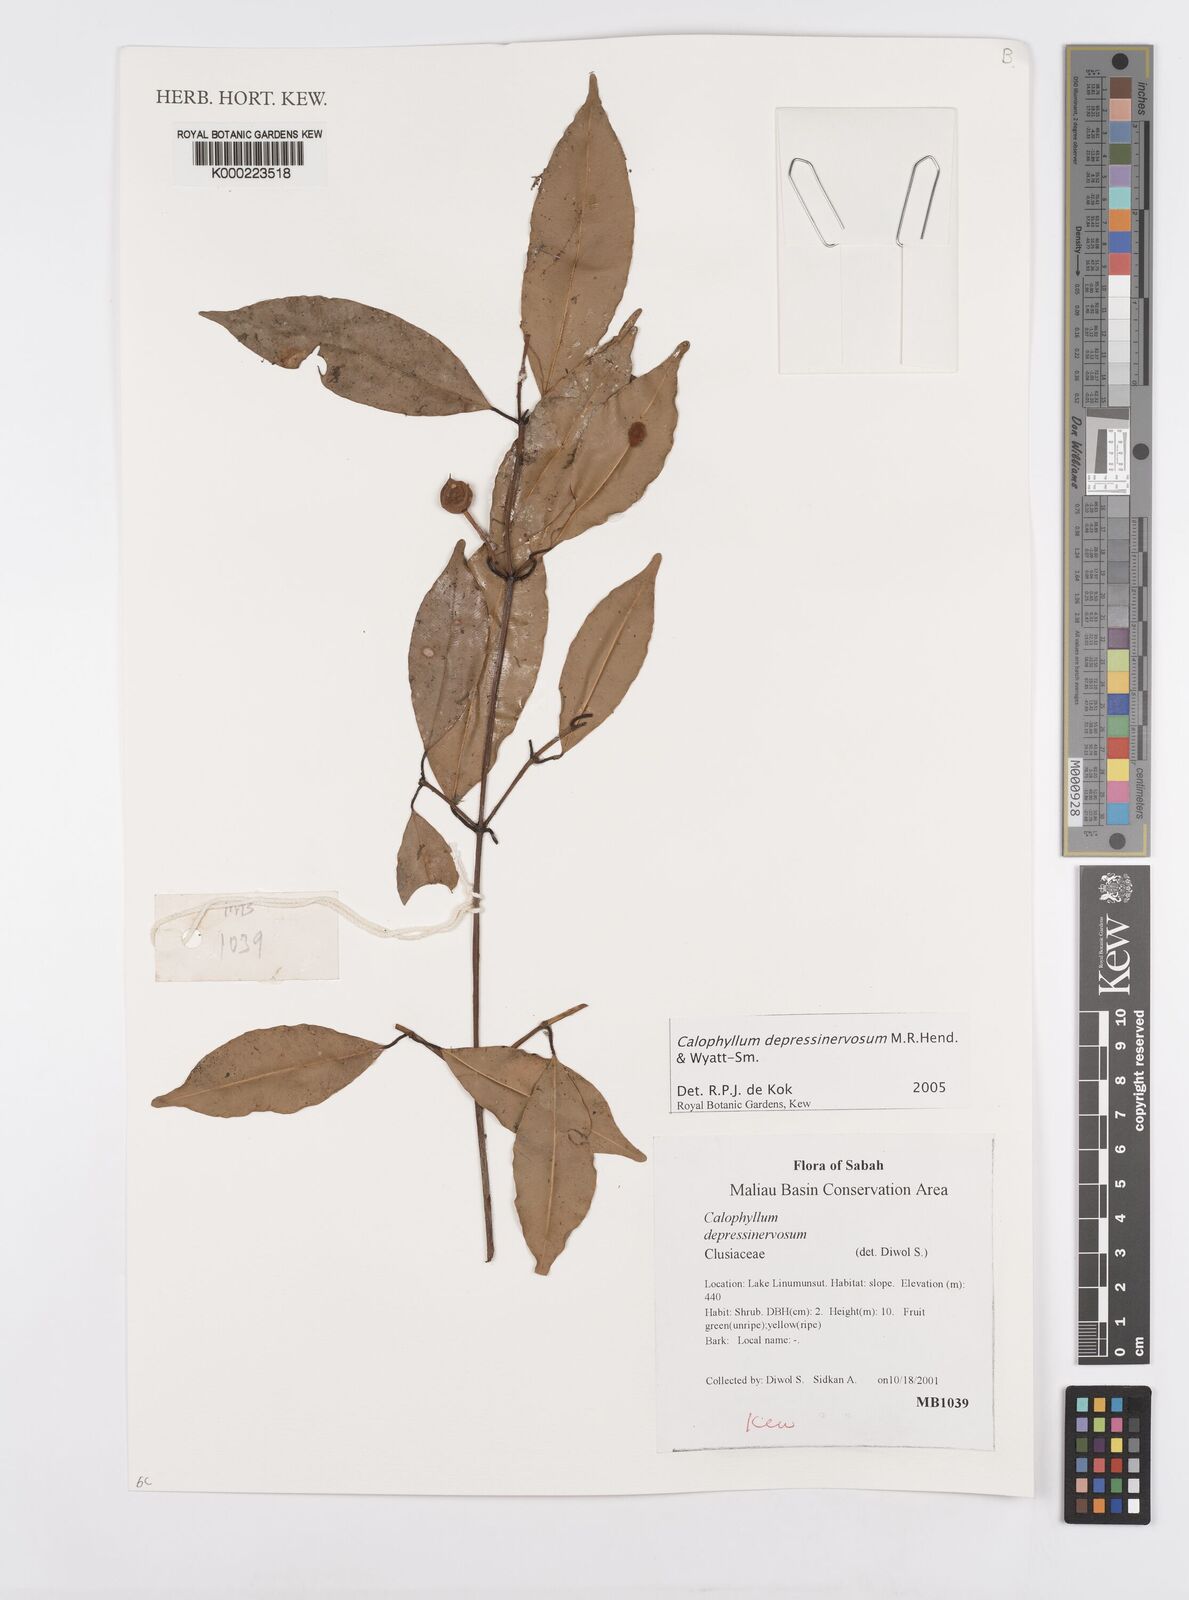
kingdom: Plantae
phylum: Tracheophyta
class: Magnoliopsida
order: Malpighiales
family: Calophyllaceae
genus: Calophyllum
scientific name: Calophyllum depressinervosum
